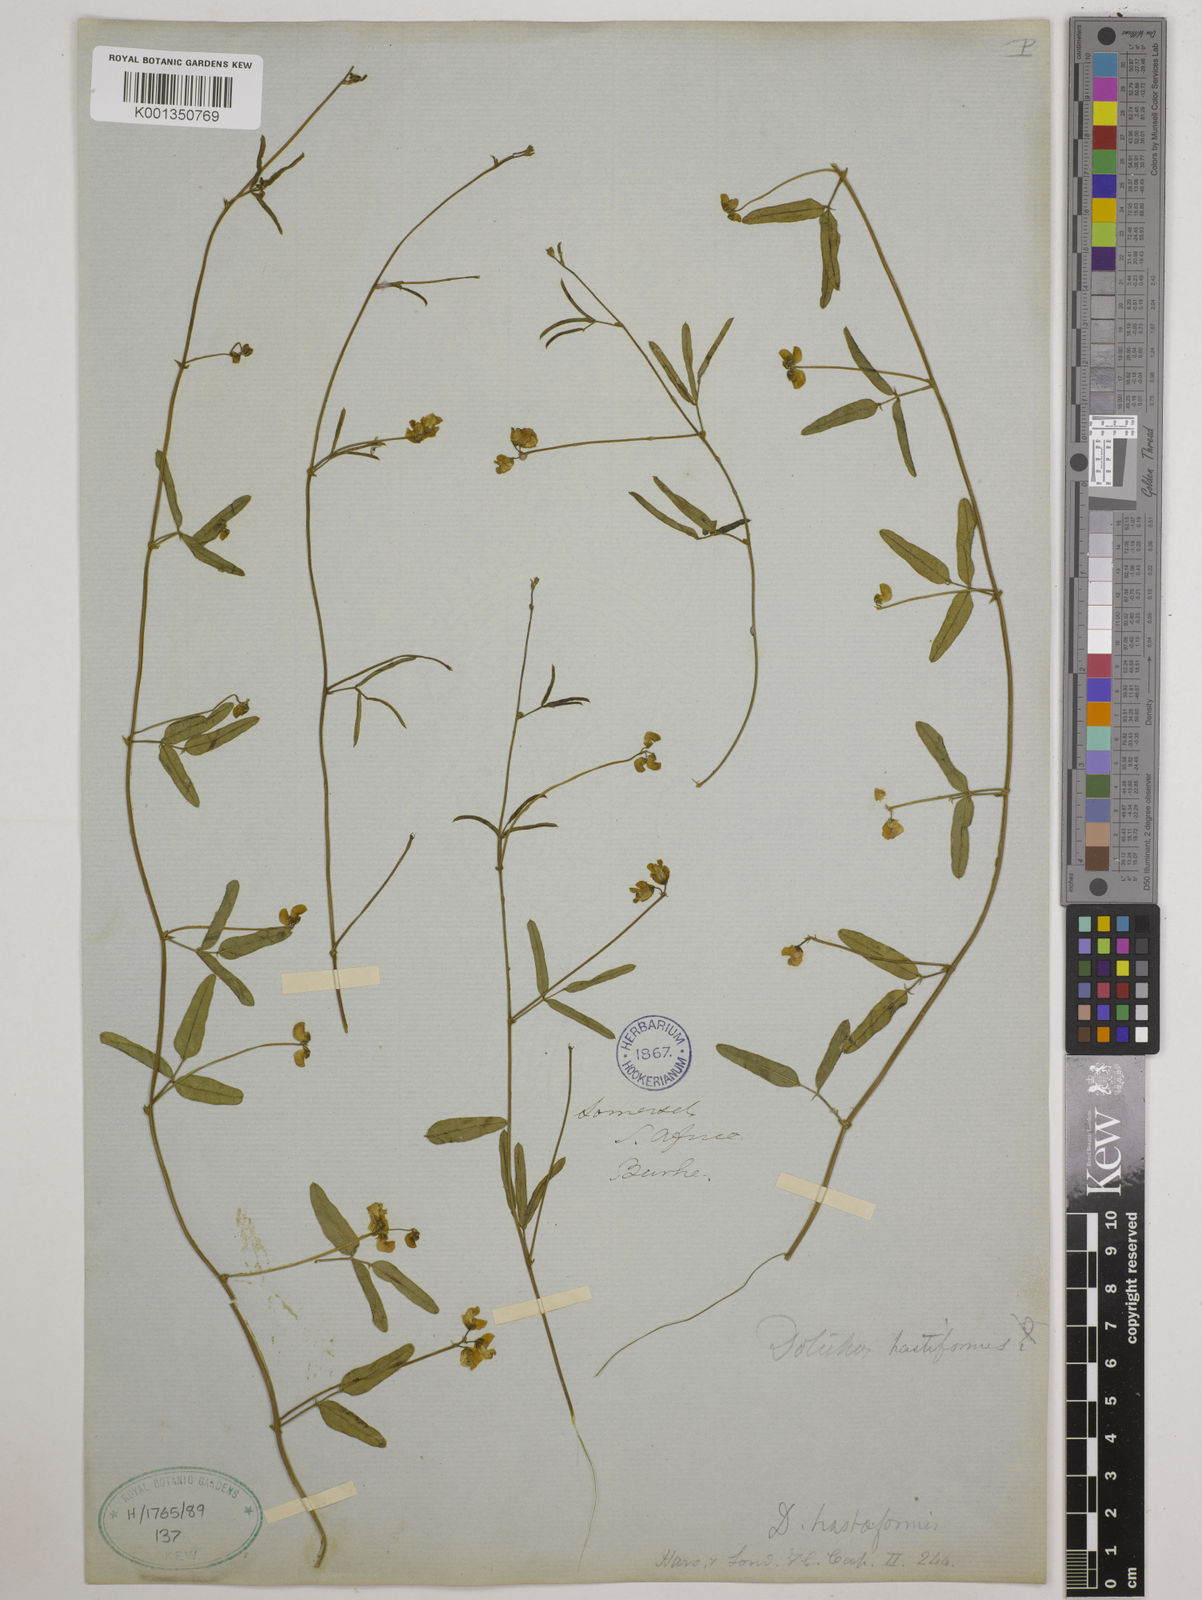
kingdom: Plantae
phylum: Tracheophyta
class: Magnoliopsida
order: Fabales
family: Fabaceae
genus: Dolichos
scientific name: Dolichos
